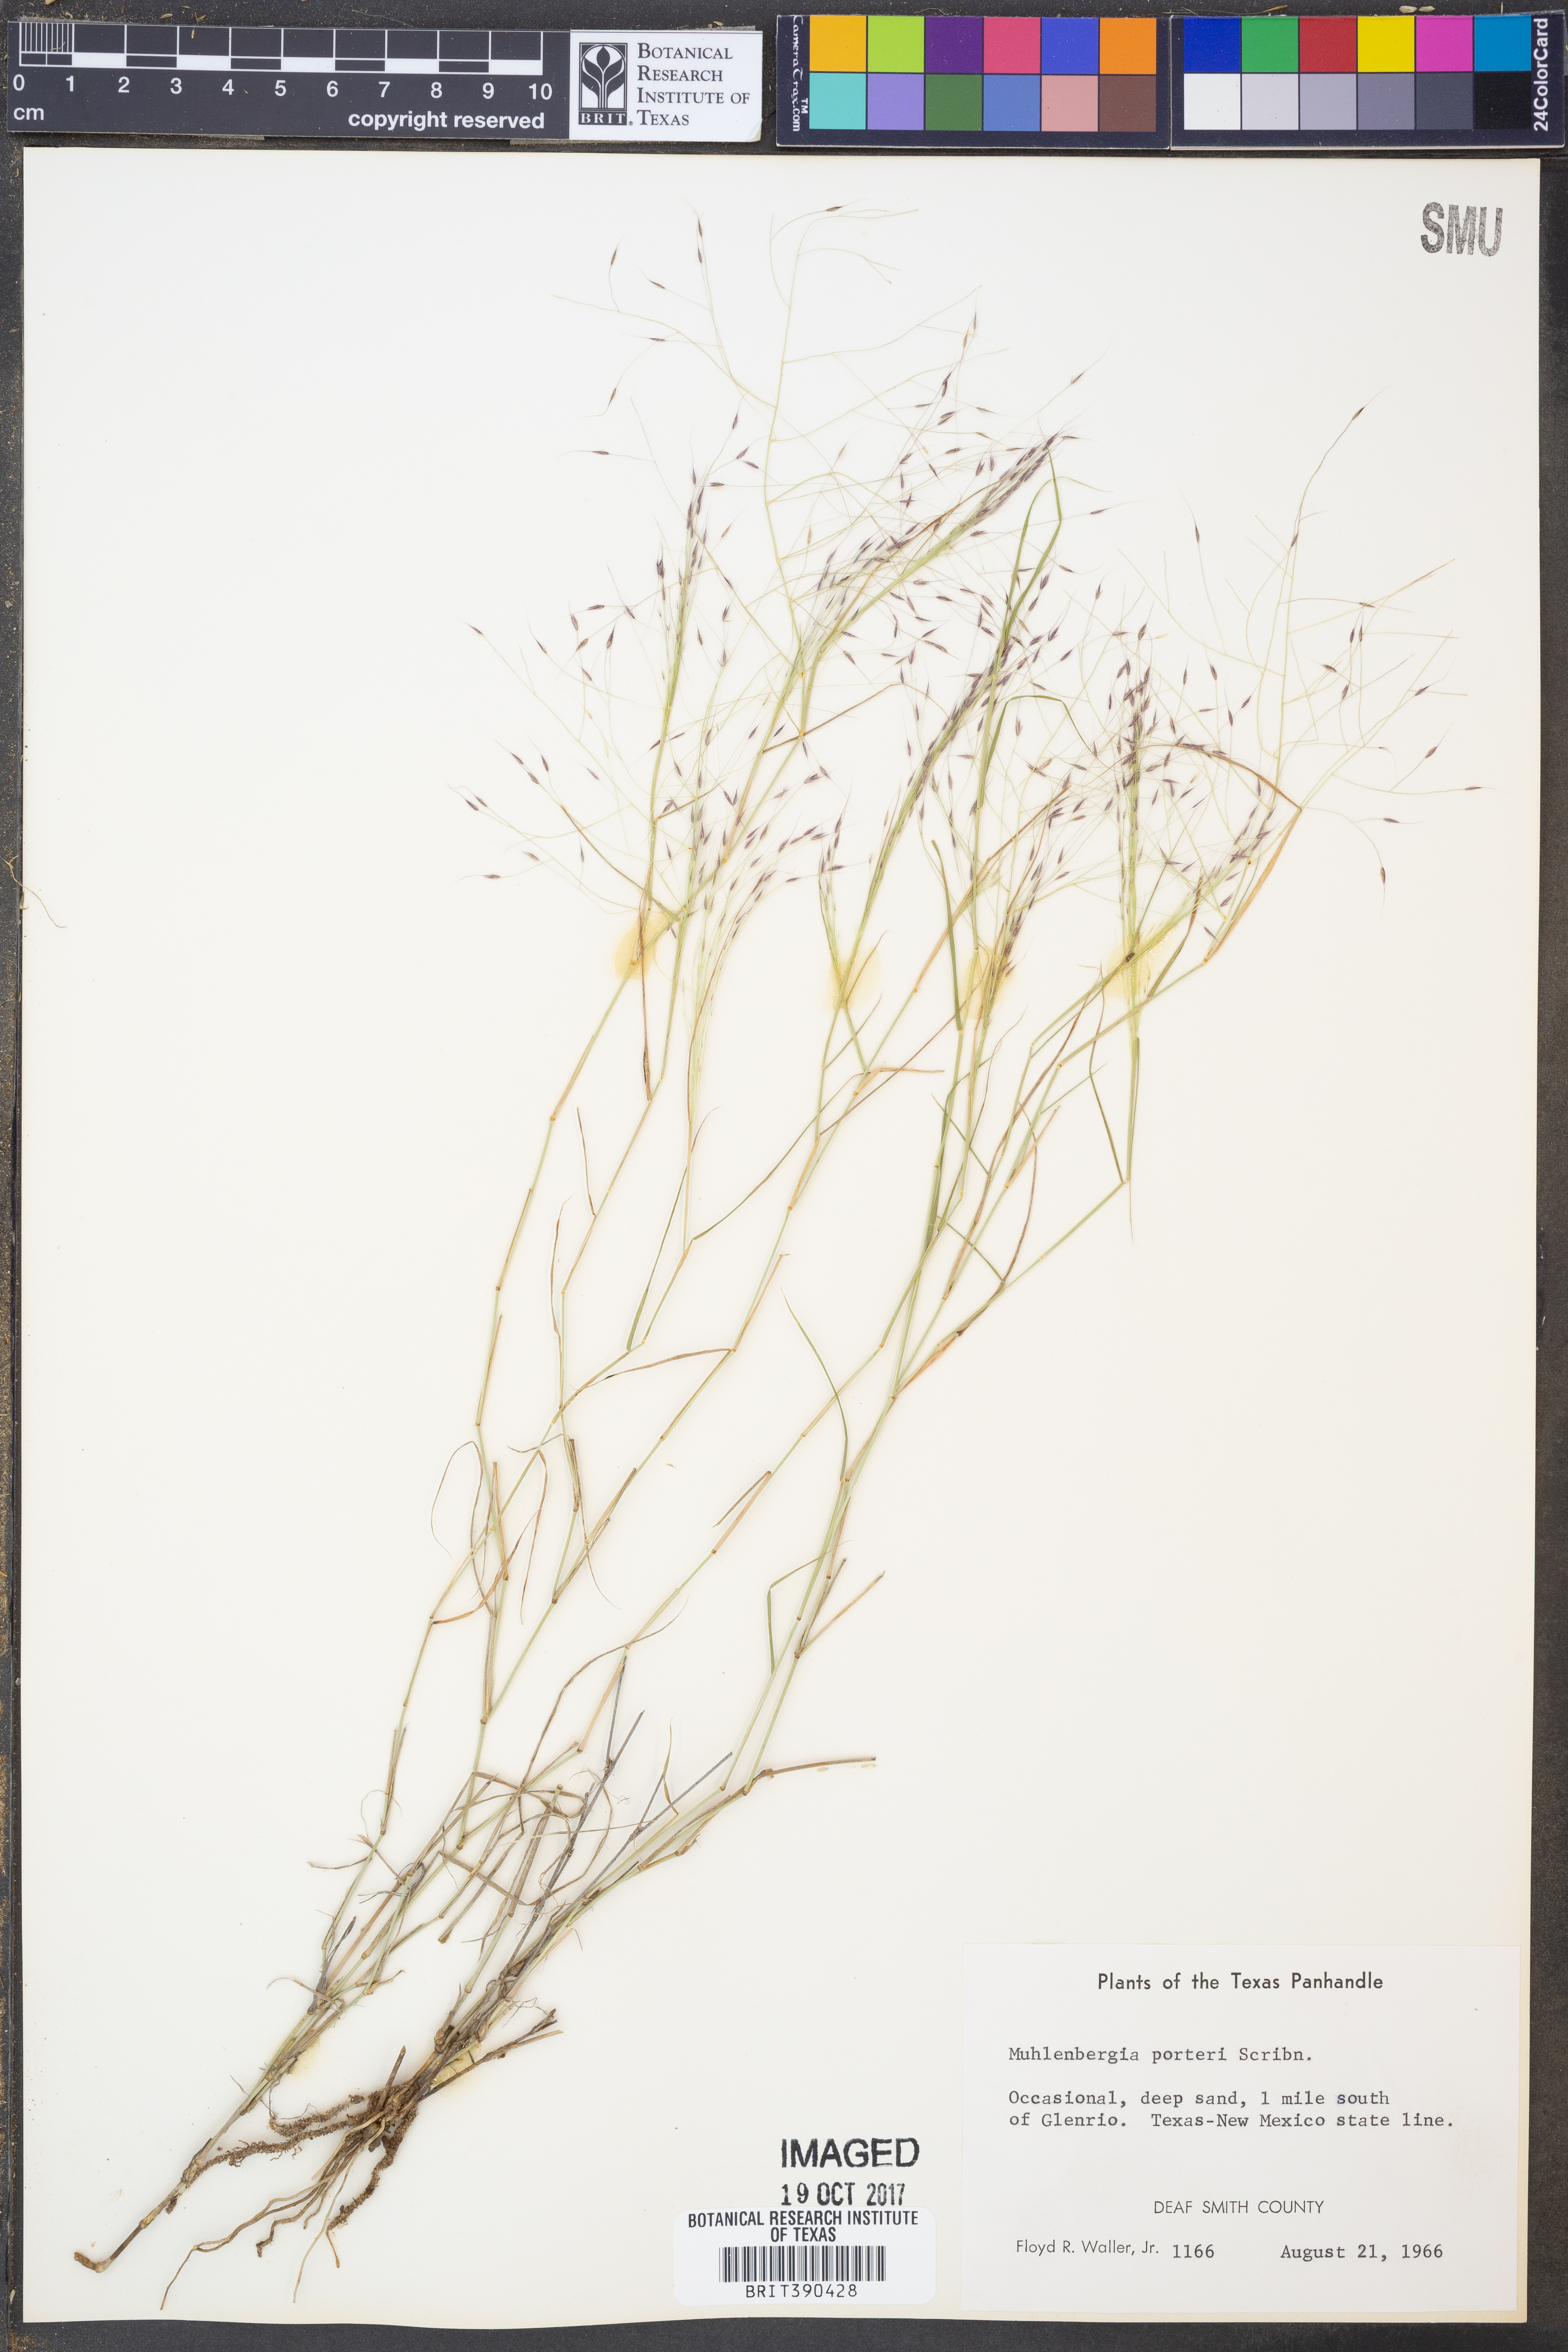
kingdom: Plantae
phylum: Tracheophyta
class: Liliopsida
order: Poales
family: Poaceae
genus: Muhlenbergia
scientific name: Muhlenbergia porteri
